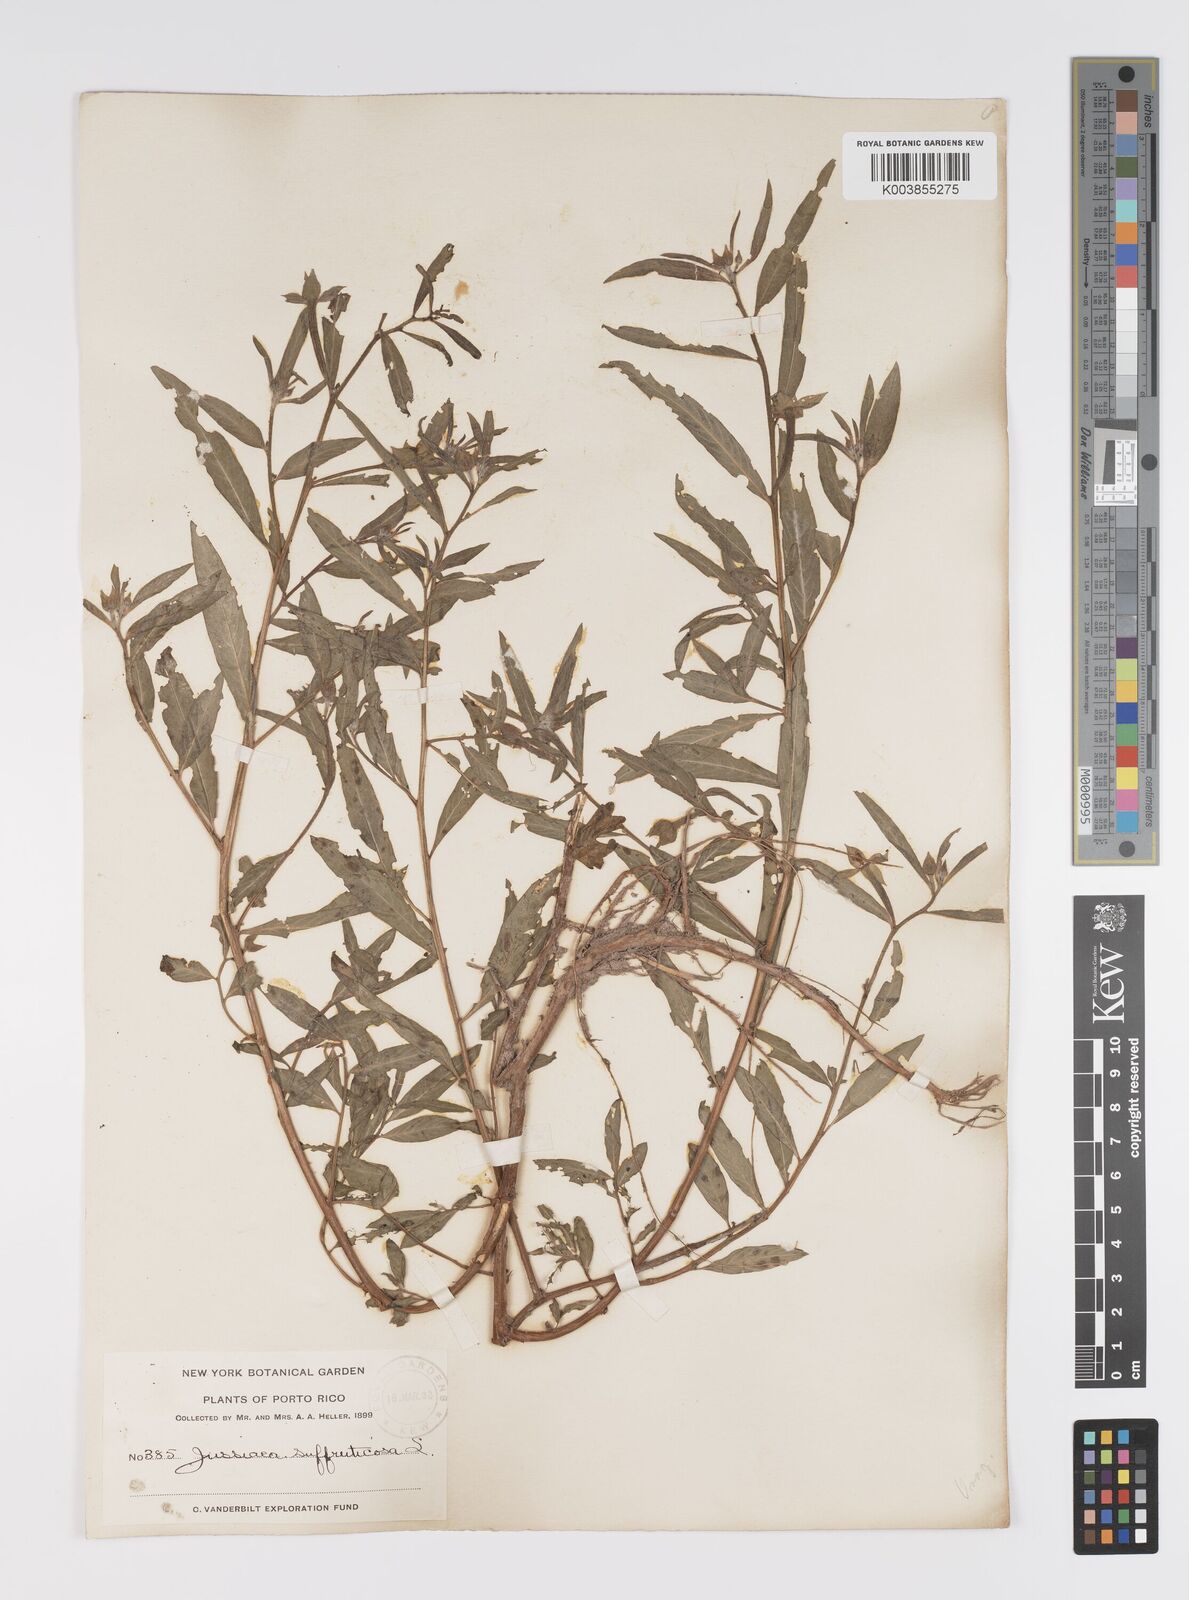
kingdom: Plantae
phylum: Tracheophyta
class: Magnoliopsida
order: Myrtales
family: Onagraceae
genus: Ludwigia
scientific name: Ludwigia octovalvis
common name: Water-primrose
